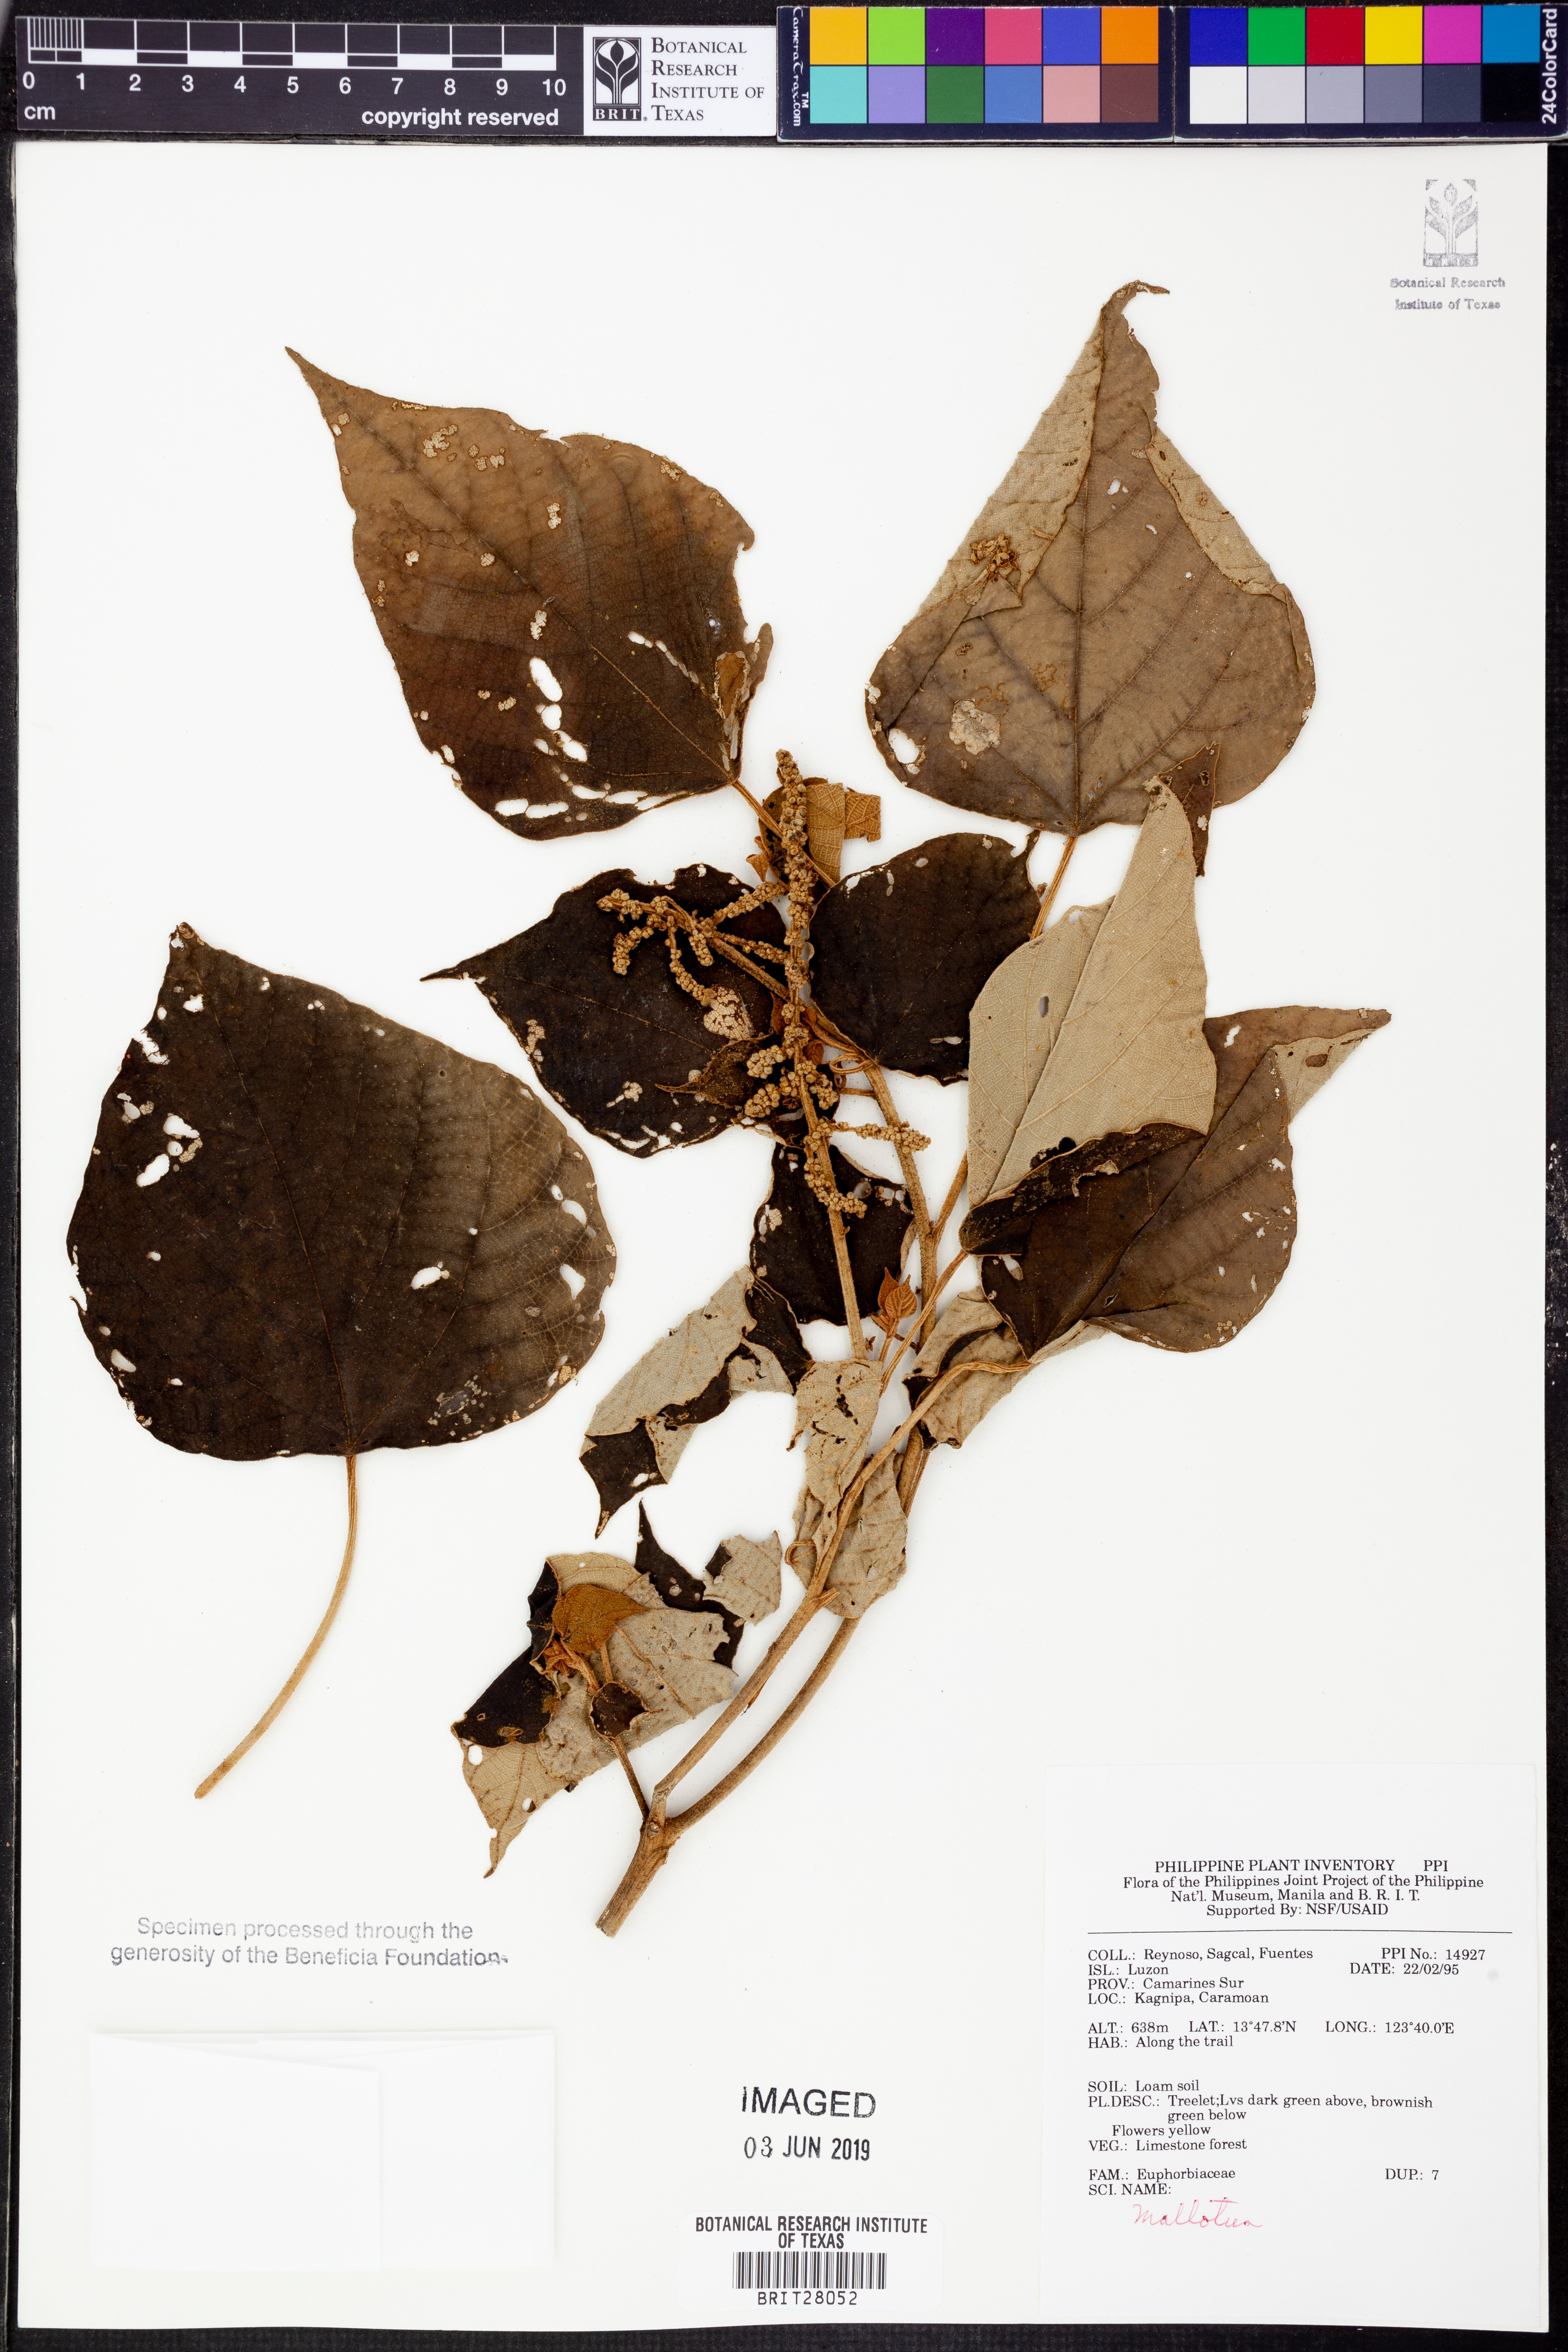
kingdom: Plantae
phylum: Tracheophyta
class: Magnoliopsida
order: Malpighiales
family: Euphorbiaceae
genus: Mallotus
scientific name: Mallotus
